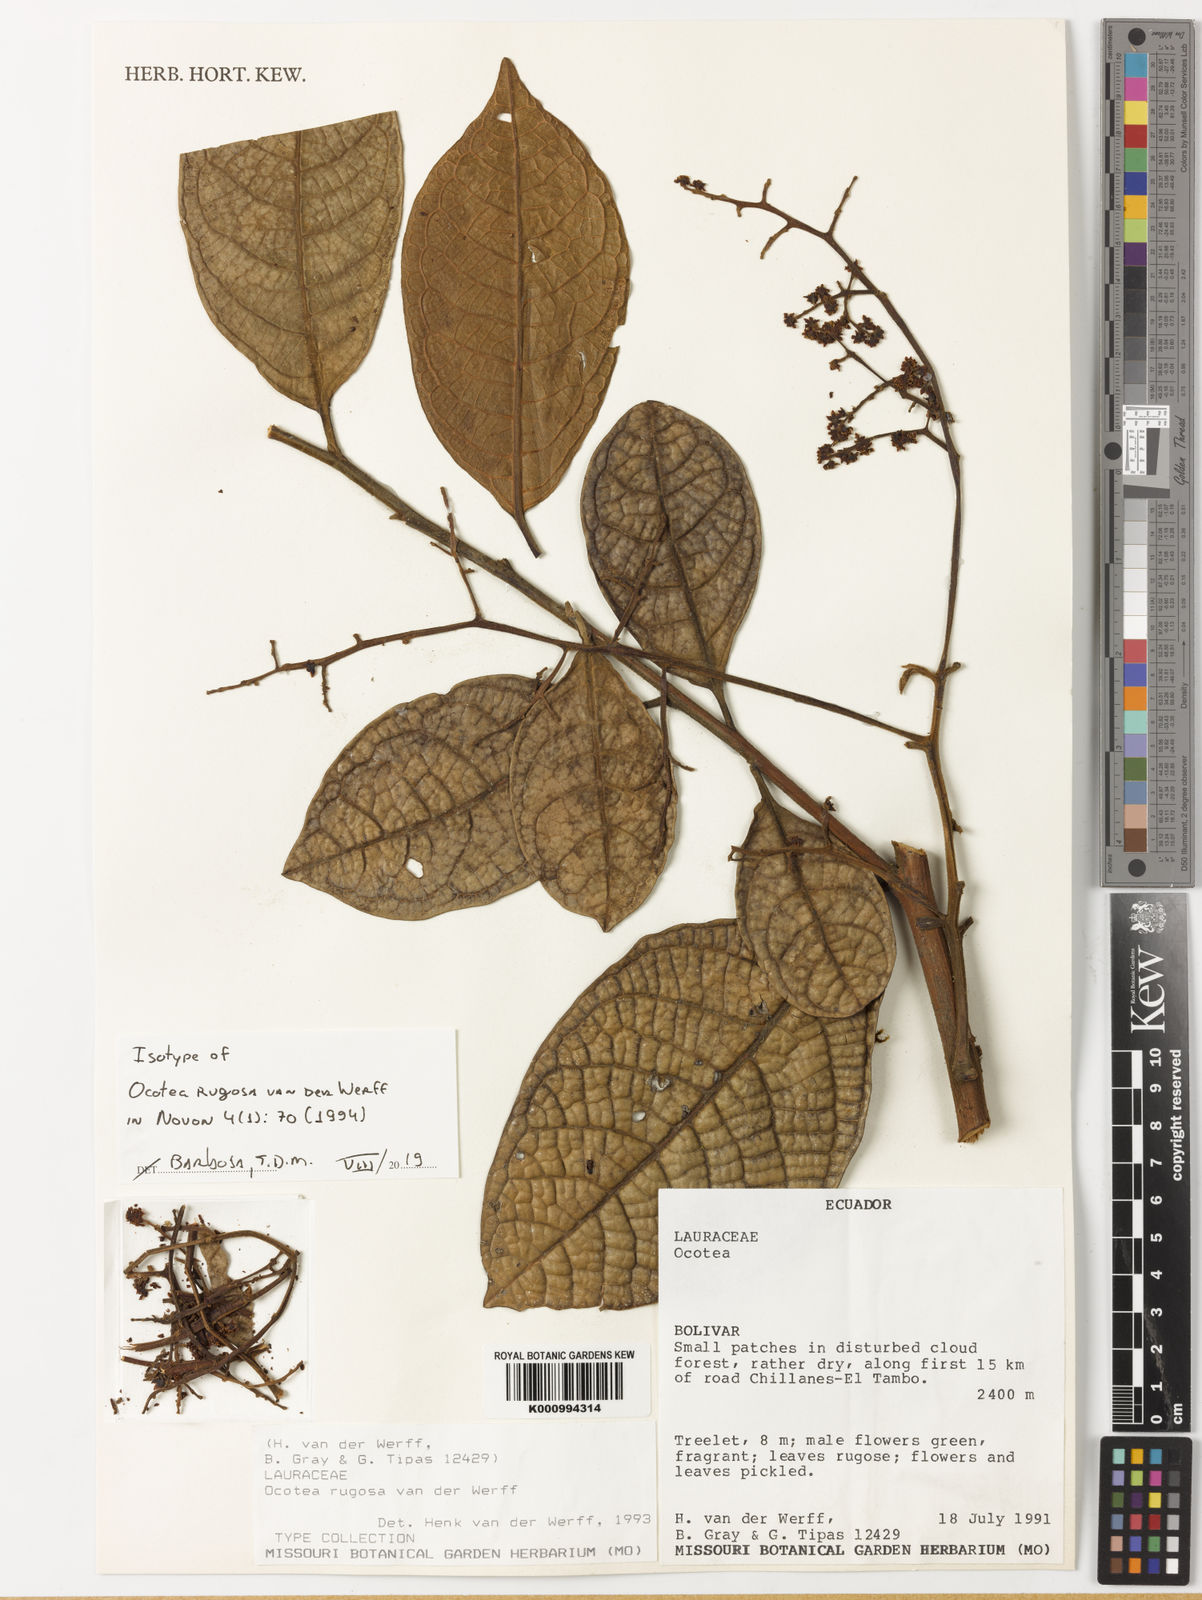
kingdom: Plantae
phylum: Tracheophyta
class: Magnoliopsida
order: Laurales
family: Lauraceae
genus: Ocotea
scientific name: Ocotea rugosa
